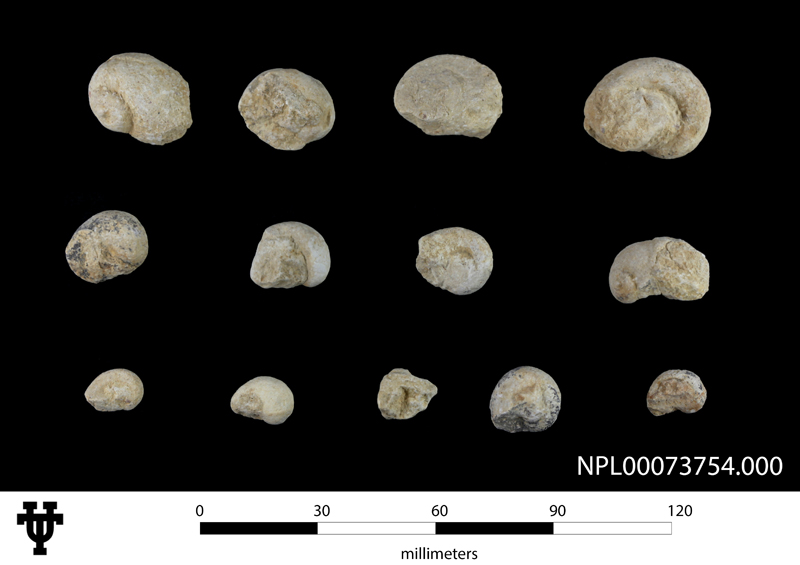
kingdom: Animalia
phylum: Mollusca
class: Gastropoda
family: Gyrodidae
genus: Gyrodes
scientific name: Gyrodes
